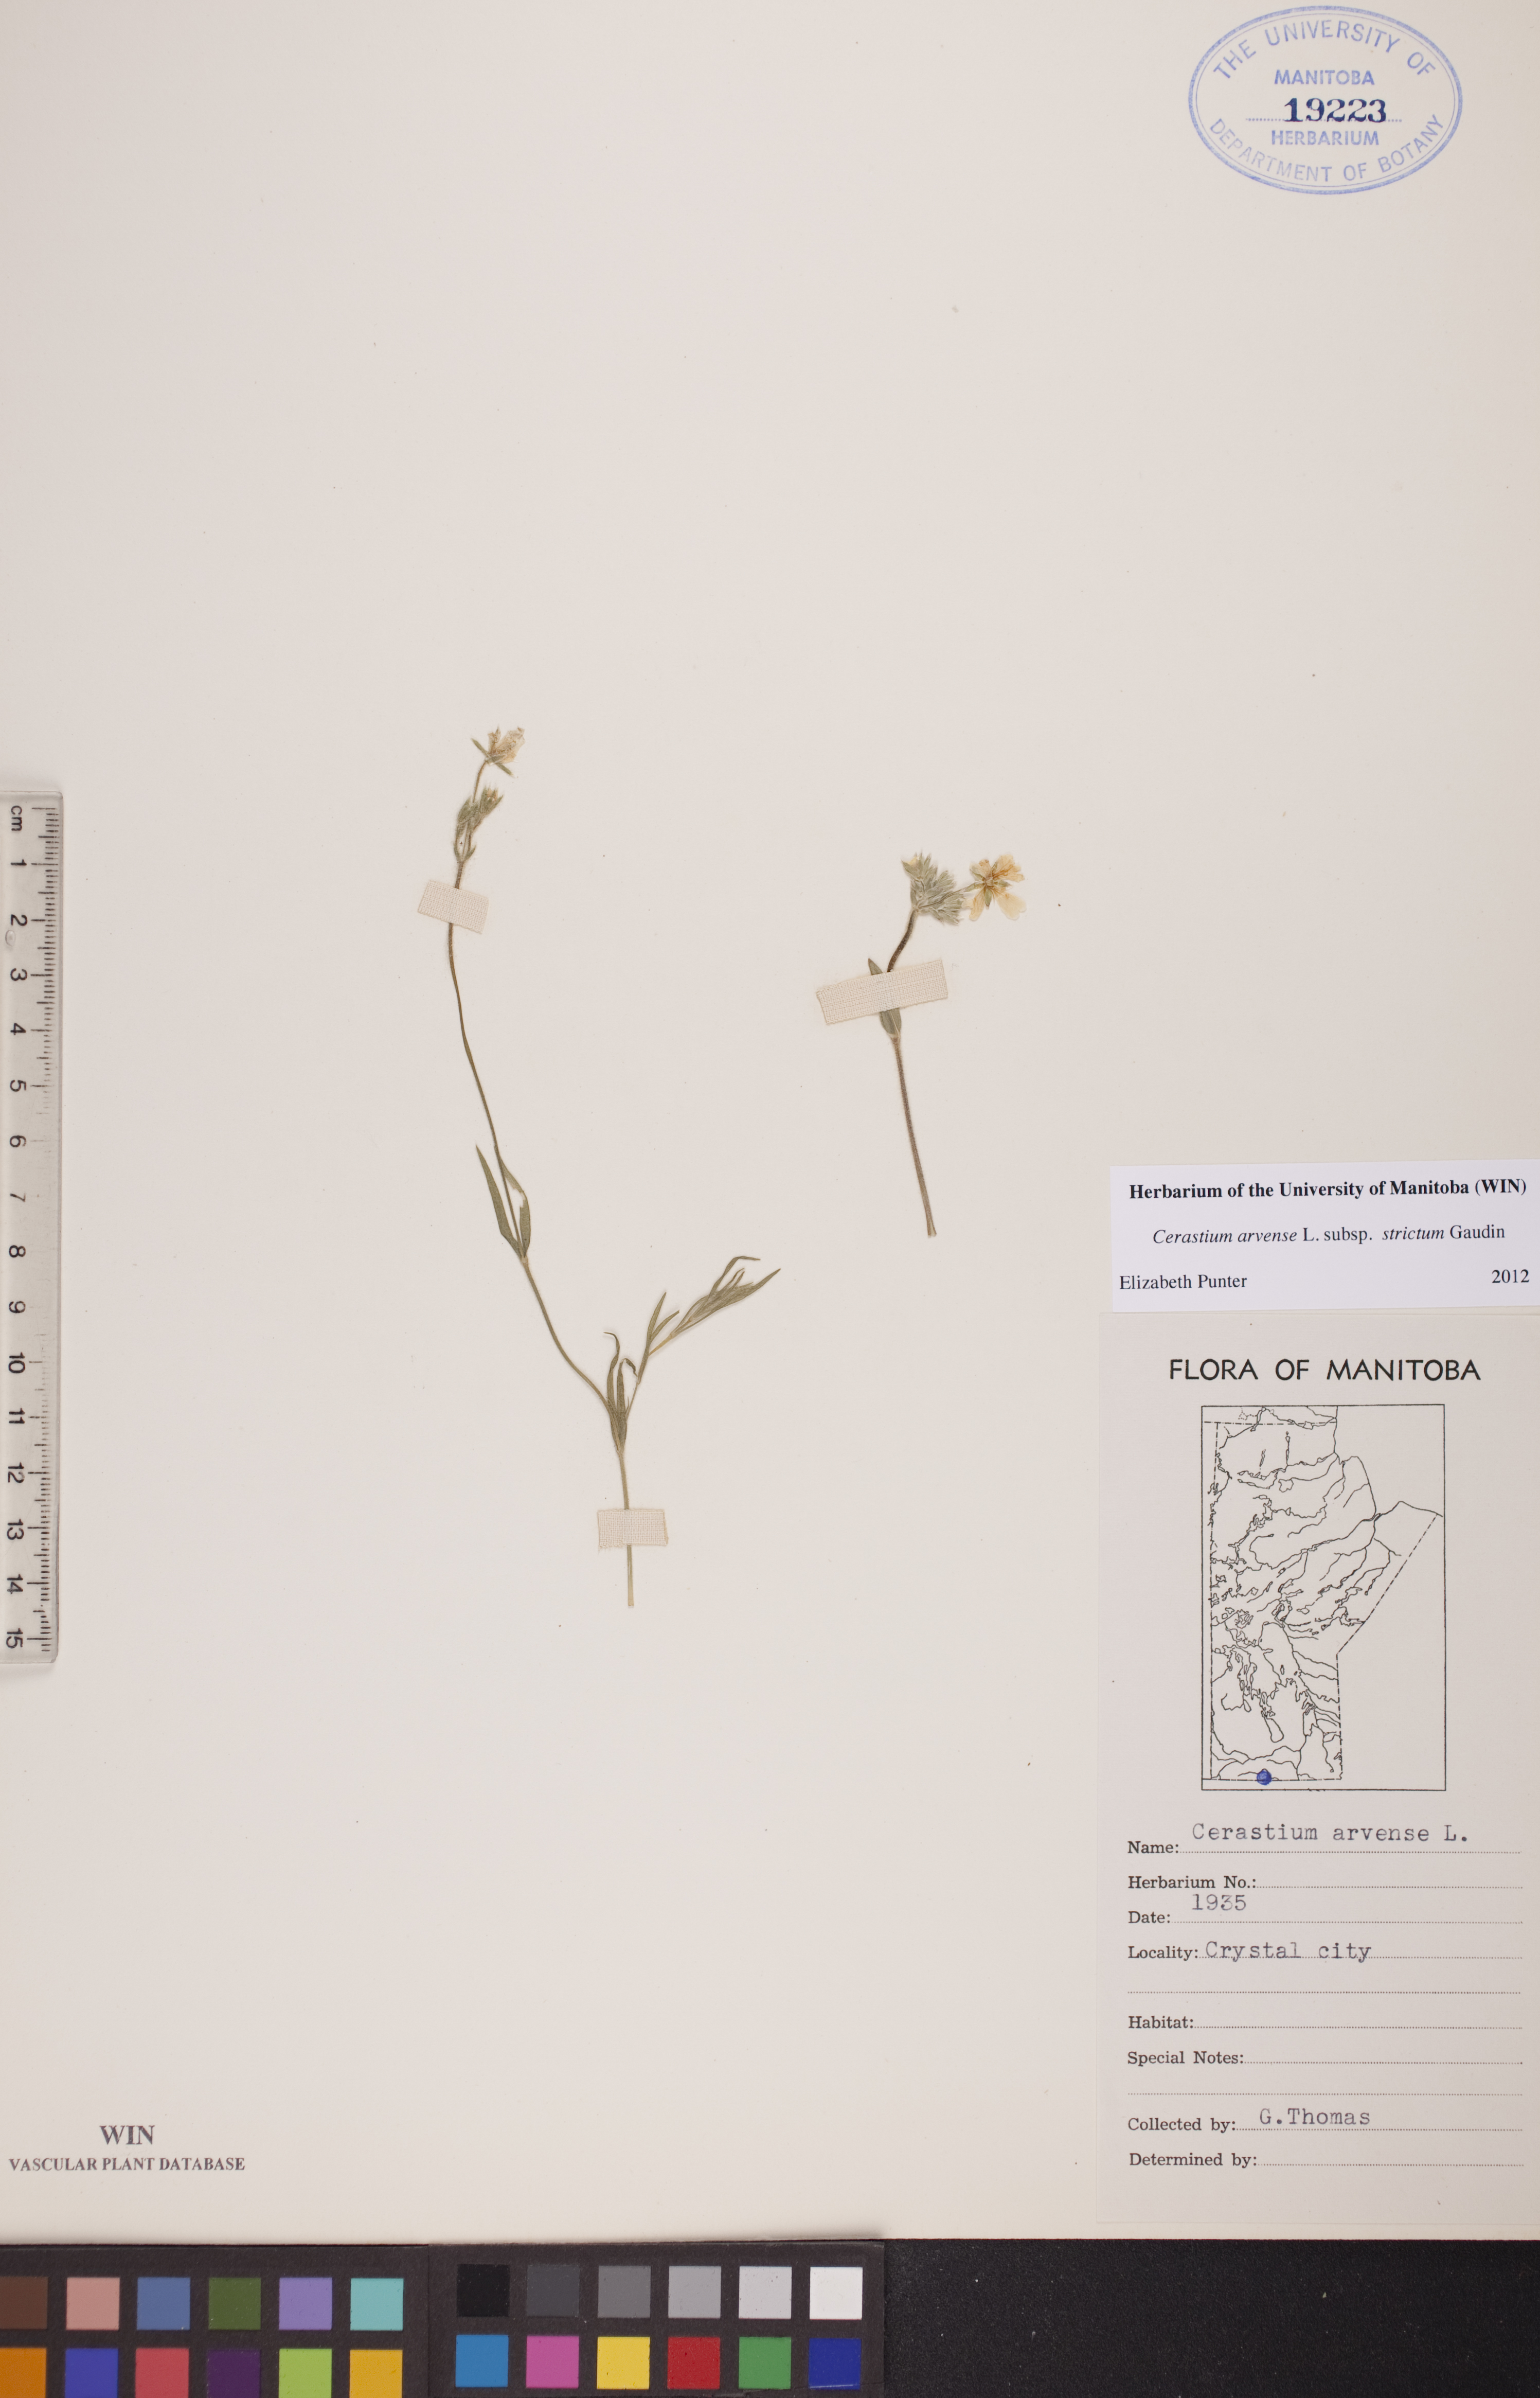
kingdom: Plantae
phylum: Tracheophyta
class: Magnoliopsida
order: Caryophyllales
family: Caryophyllaceae
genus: Cerastium
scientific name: Cerastium elongatum
